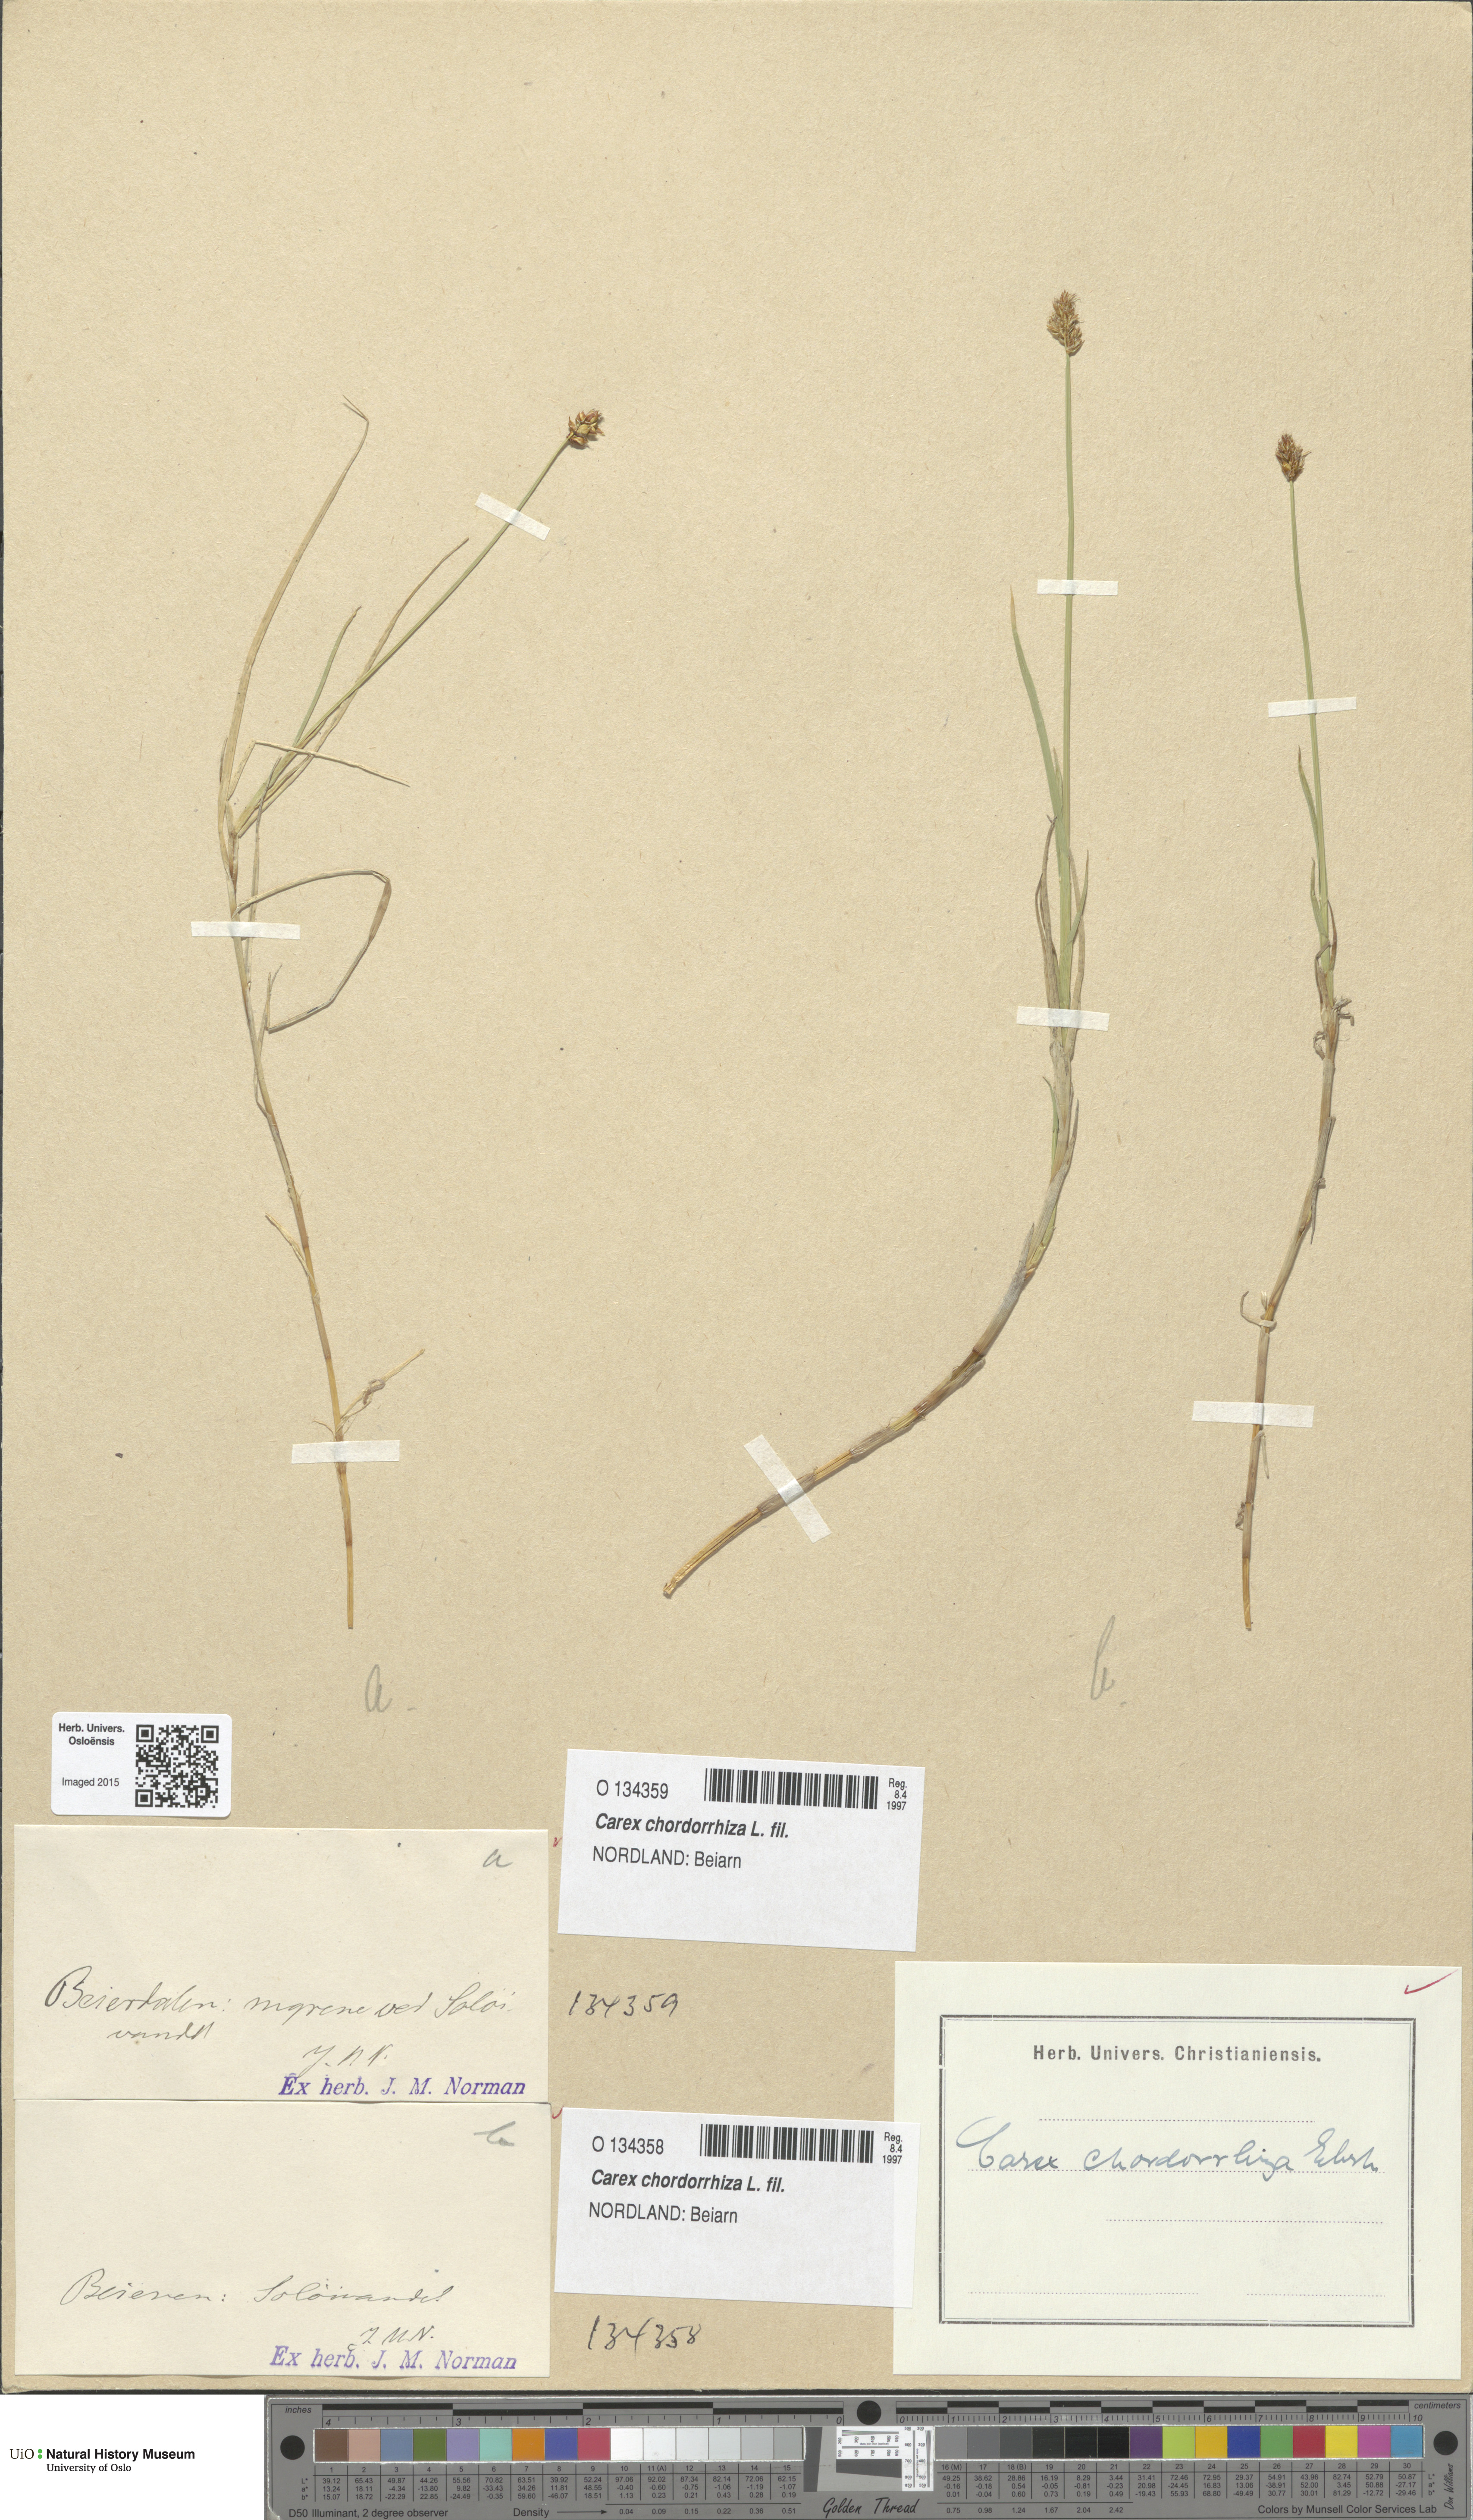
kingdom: Plantae
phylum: Tracheophyta
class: Liliopsida
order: Poales
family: Cyperaceae
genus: Carex
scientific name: Carex chordorrhiza
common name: String sedge
